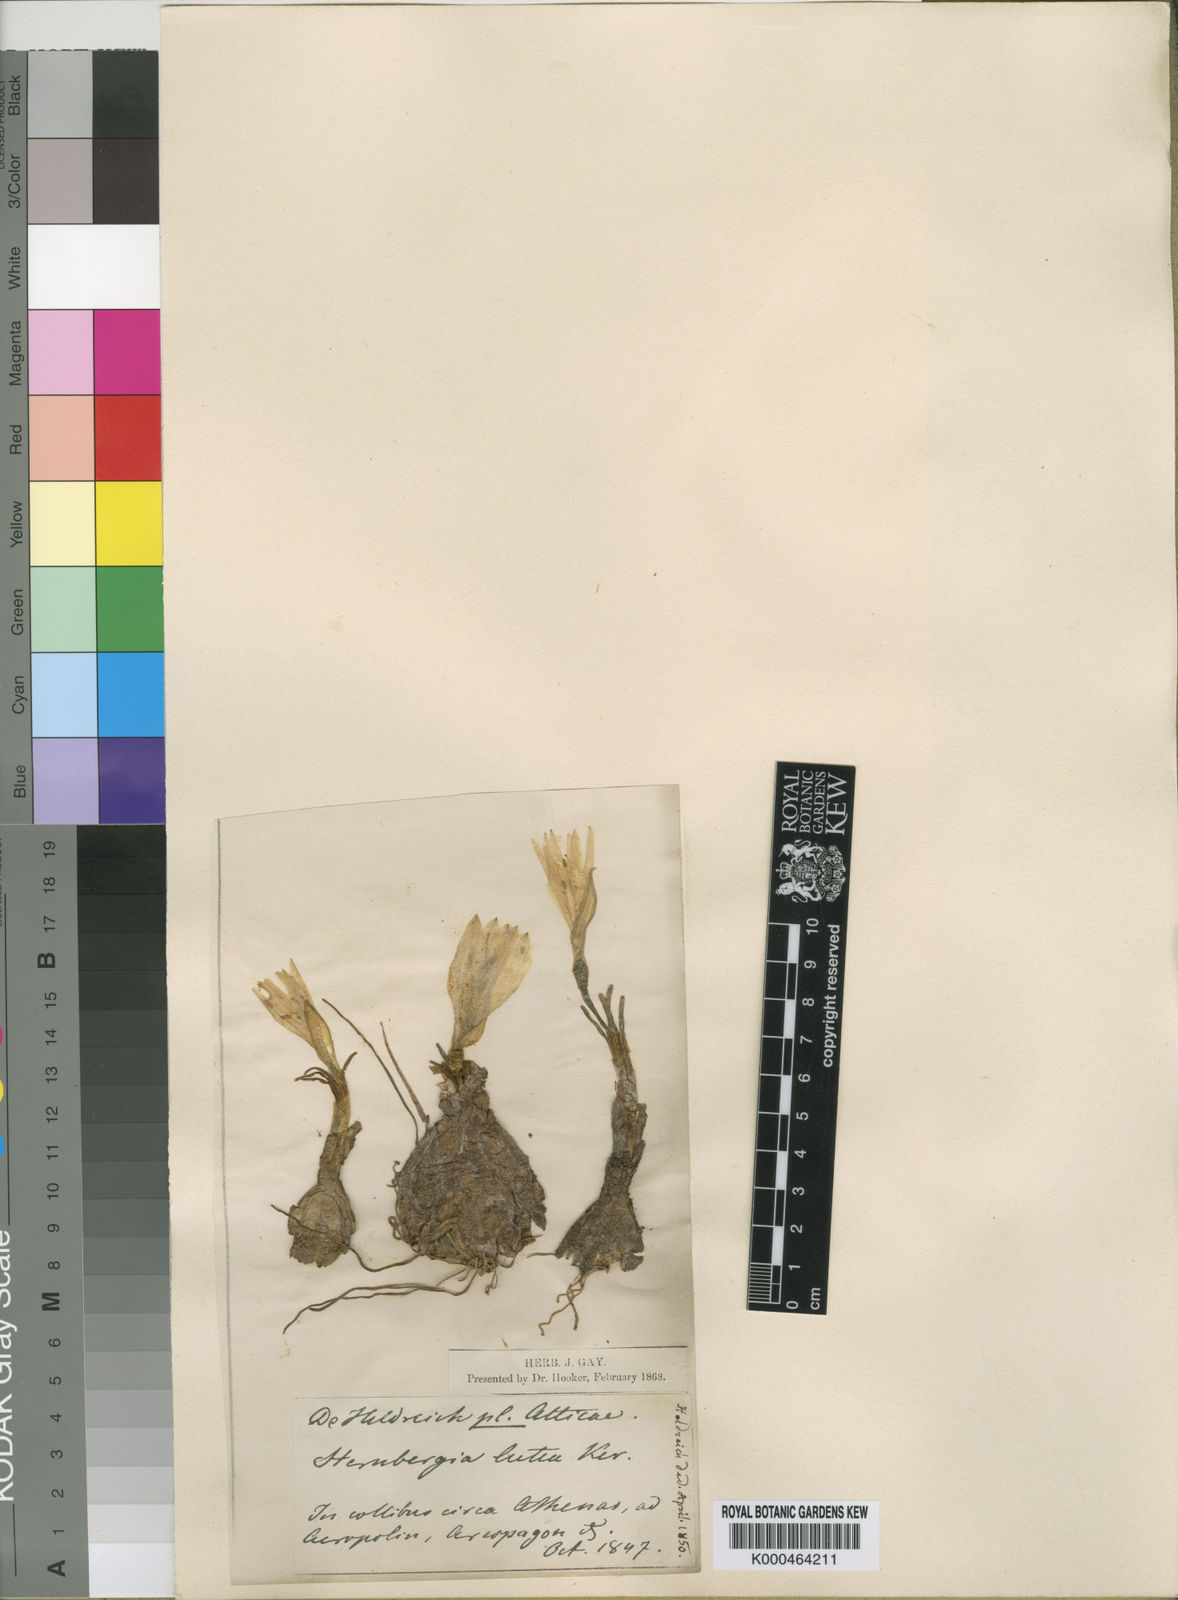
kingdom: Plantae
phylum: Tracheophyta
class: Liliopsida
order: Asparagales
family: Amaryllidaceae
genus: Sternbergia
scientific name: Sternbergia
